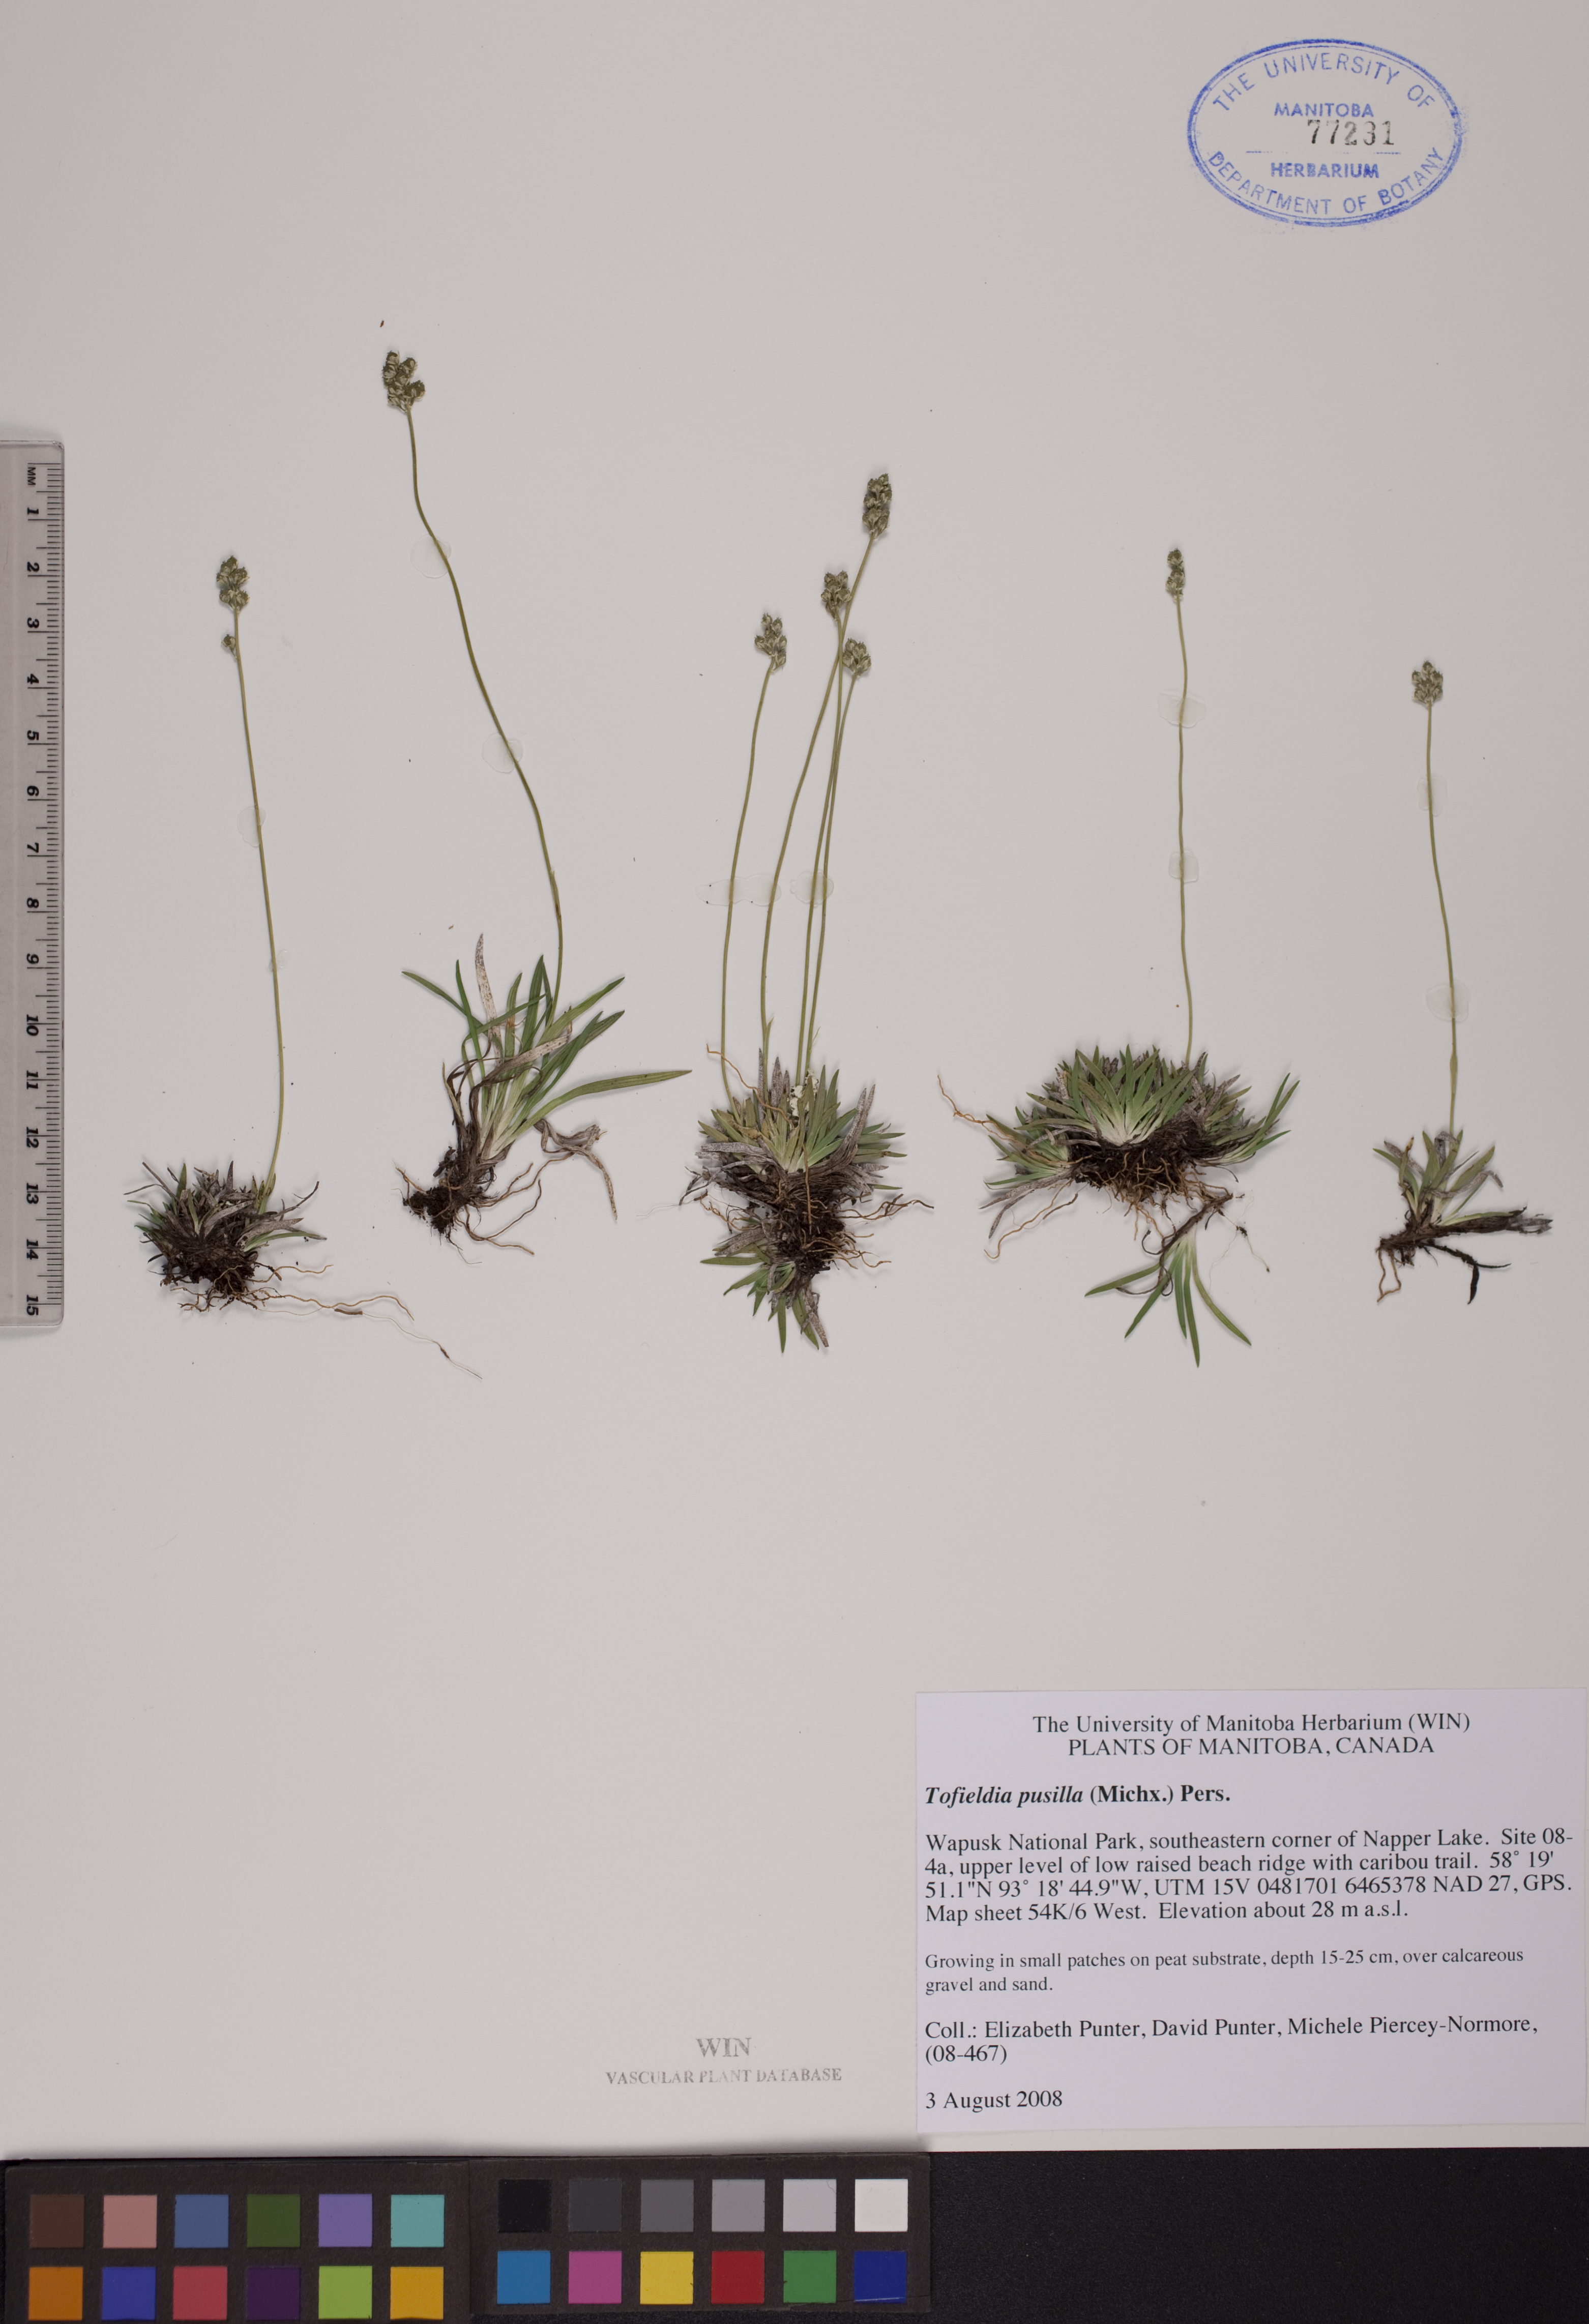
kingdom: Plantae
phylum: Tracheophyta
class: Liliopsida
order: Alismatales
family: Tofieldiaceae
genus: Tofieldia
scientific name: Tofieldia pusilla
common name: Scottish false asphodel
